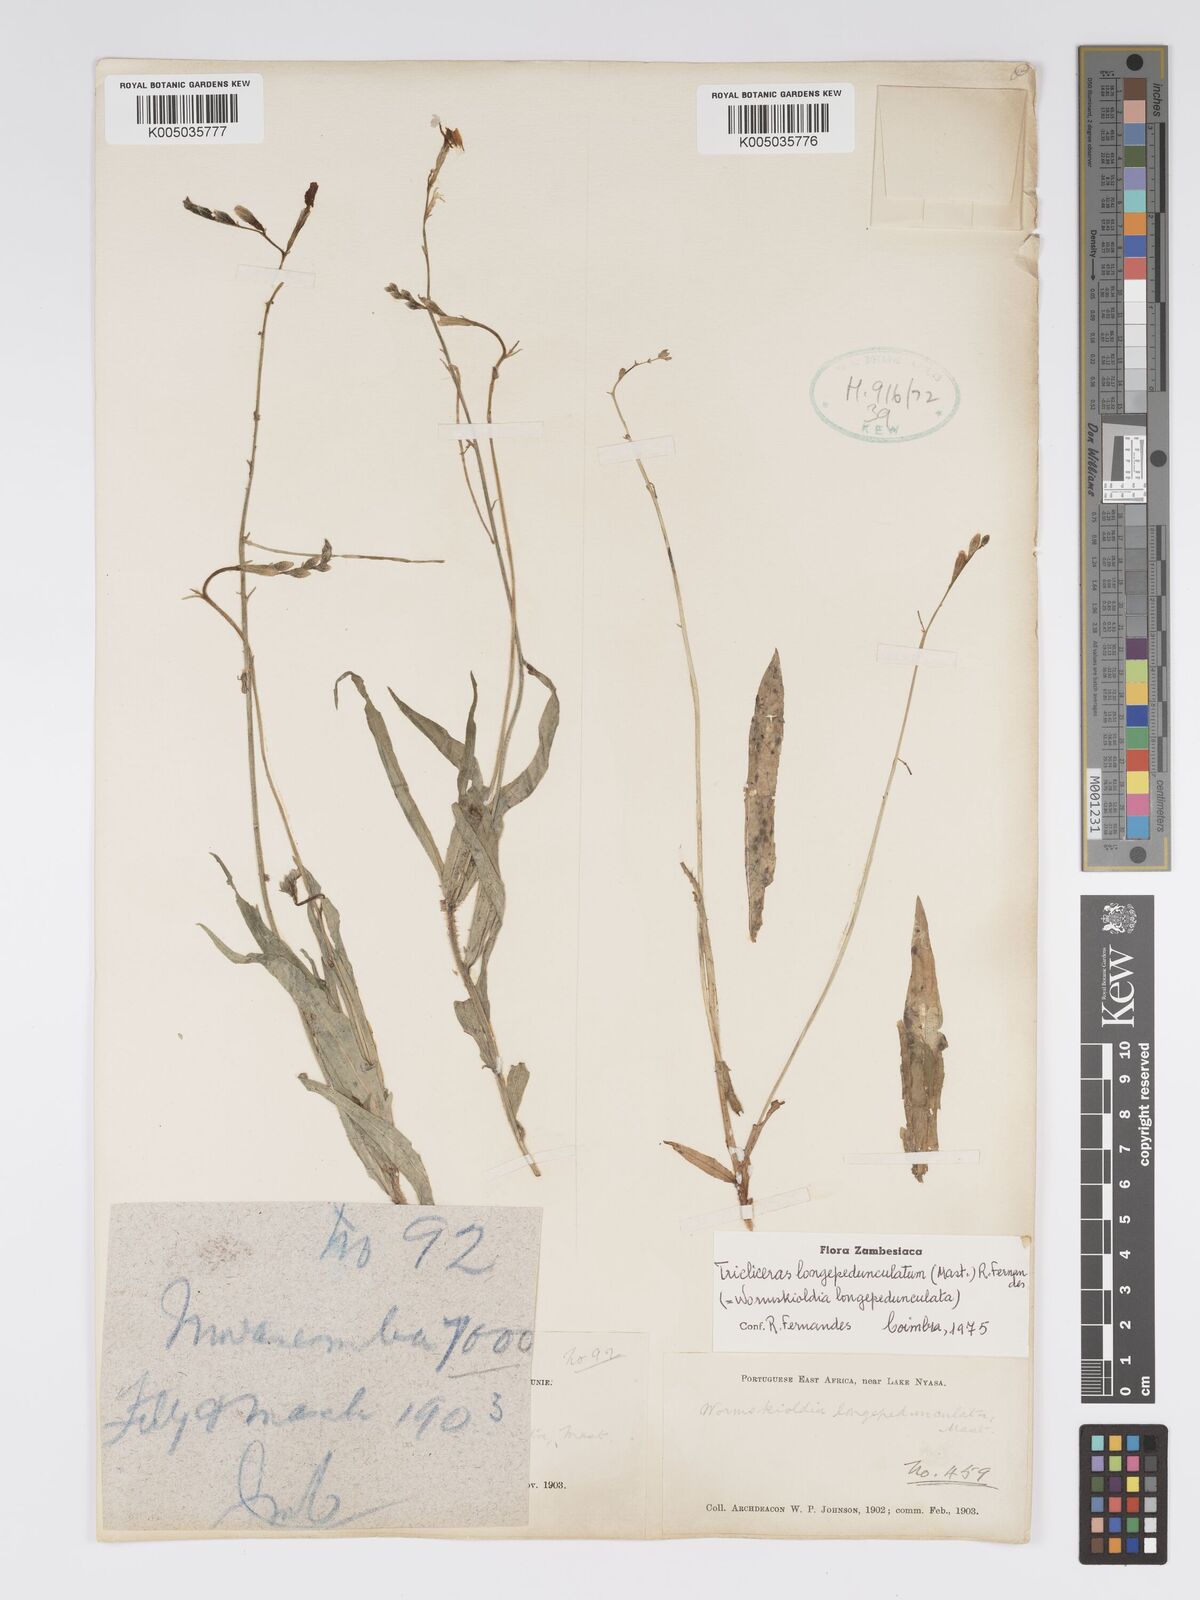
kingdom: Plantae
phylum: Tracheophyta
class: Magnoliopsida
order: Malpighiales
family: Turneraceae
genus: Tricliceras
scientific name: Tricliceras longepedunculatum
